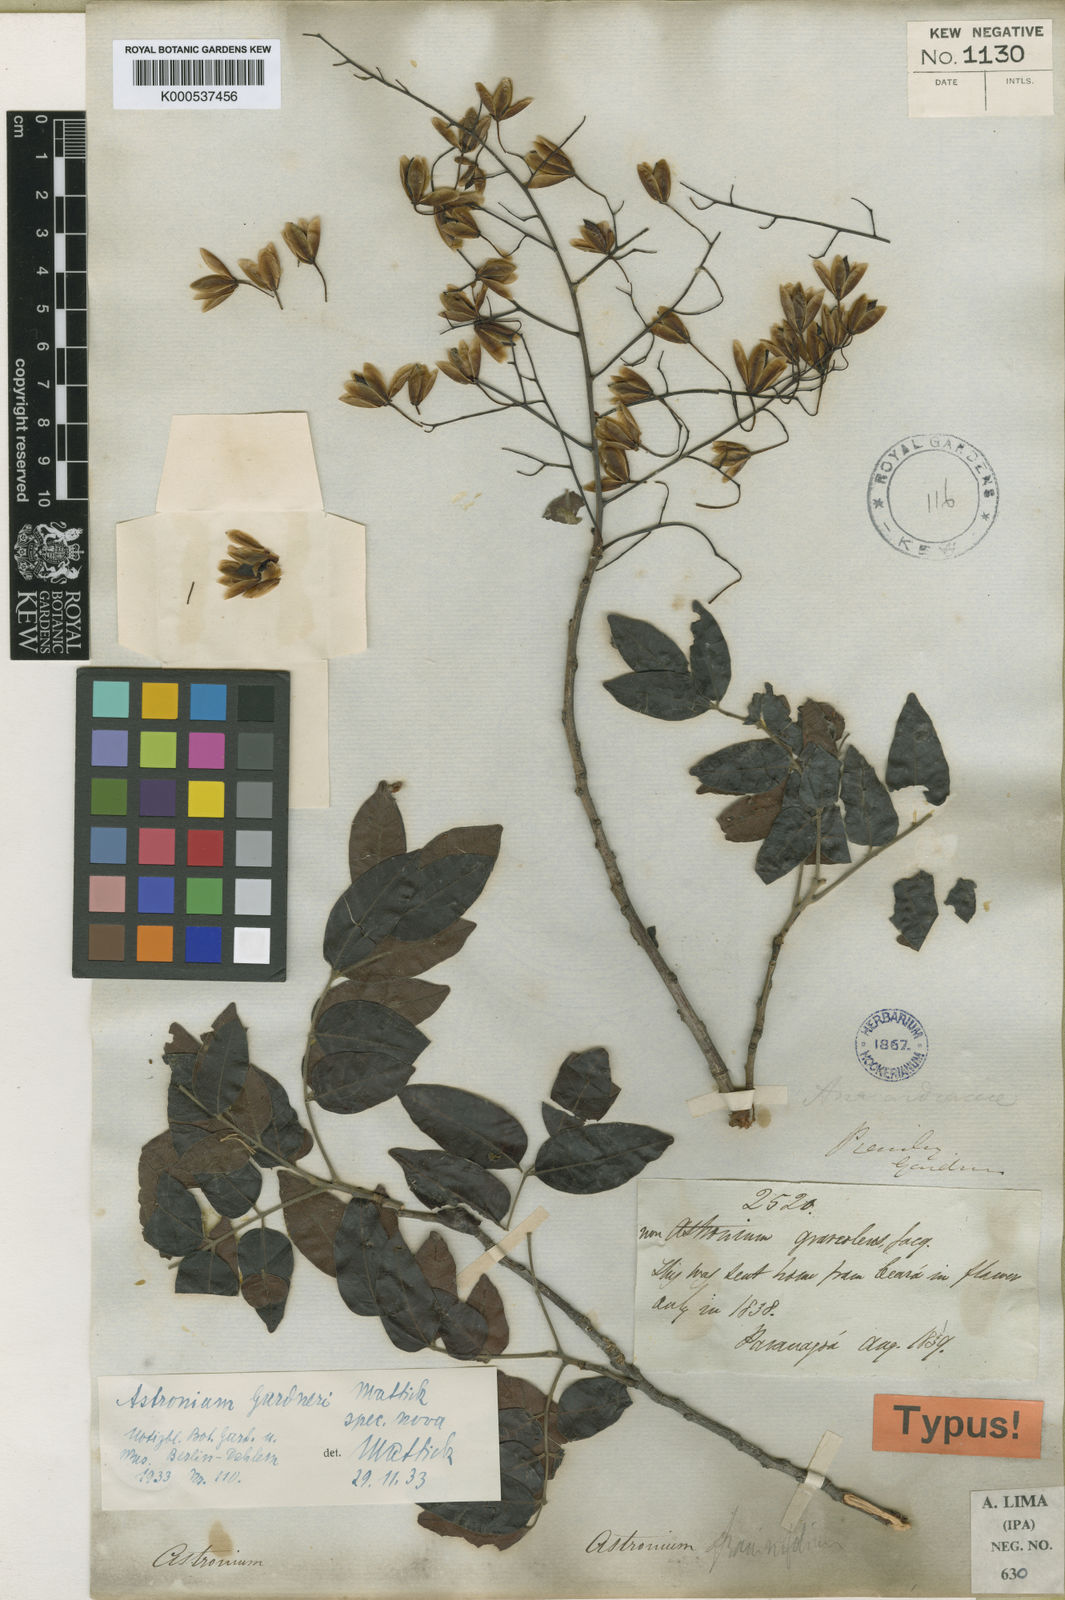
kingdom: Plantae
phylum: Tracheophyta
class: Magnoliopsida
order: Sapindales
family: Anacardiaceae
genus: Astronium
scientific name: Astronium gardneri
